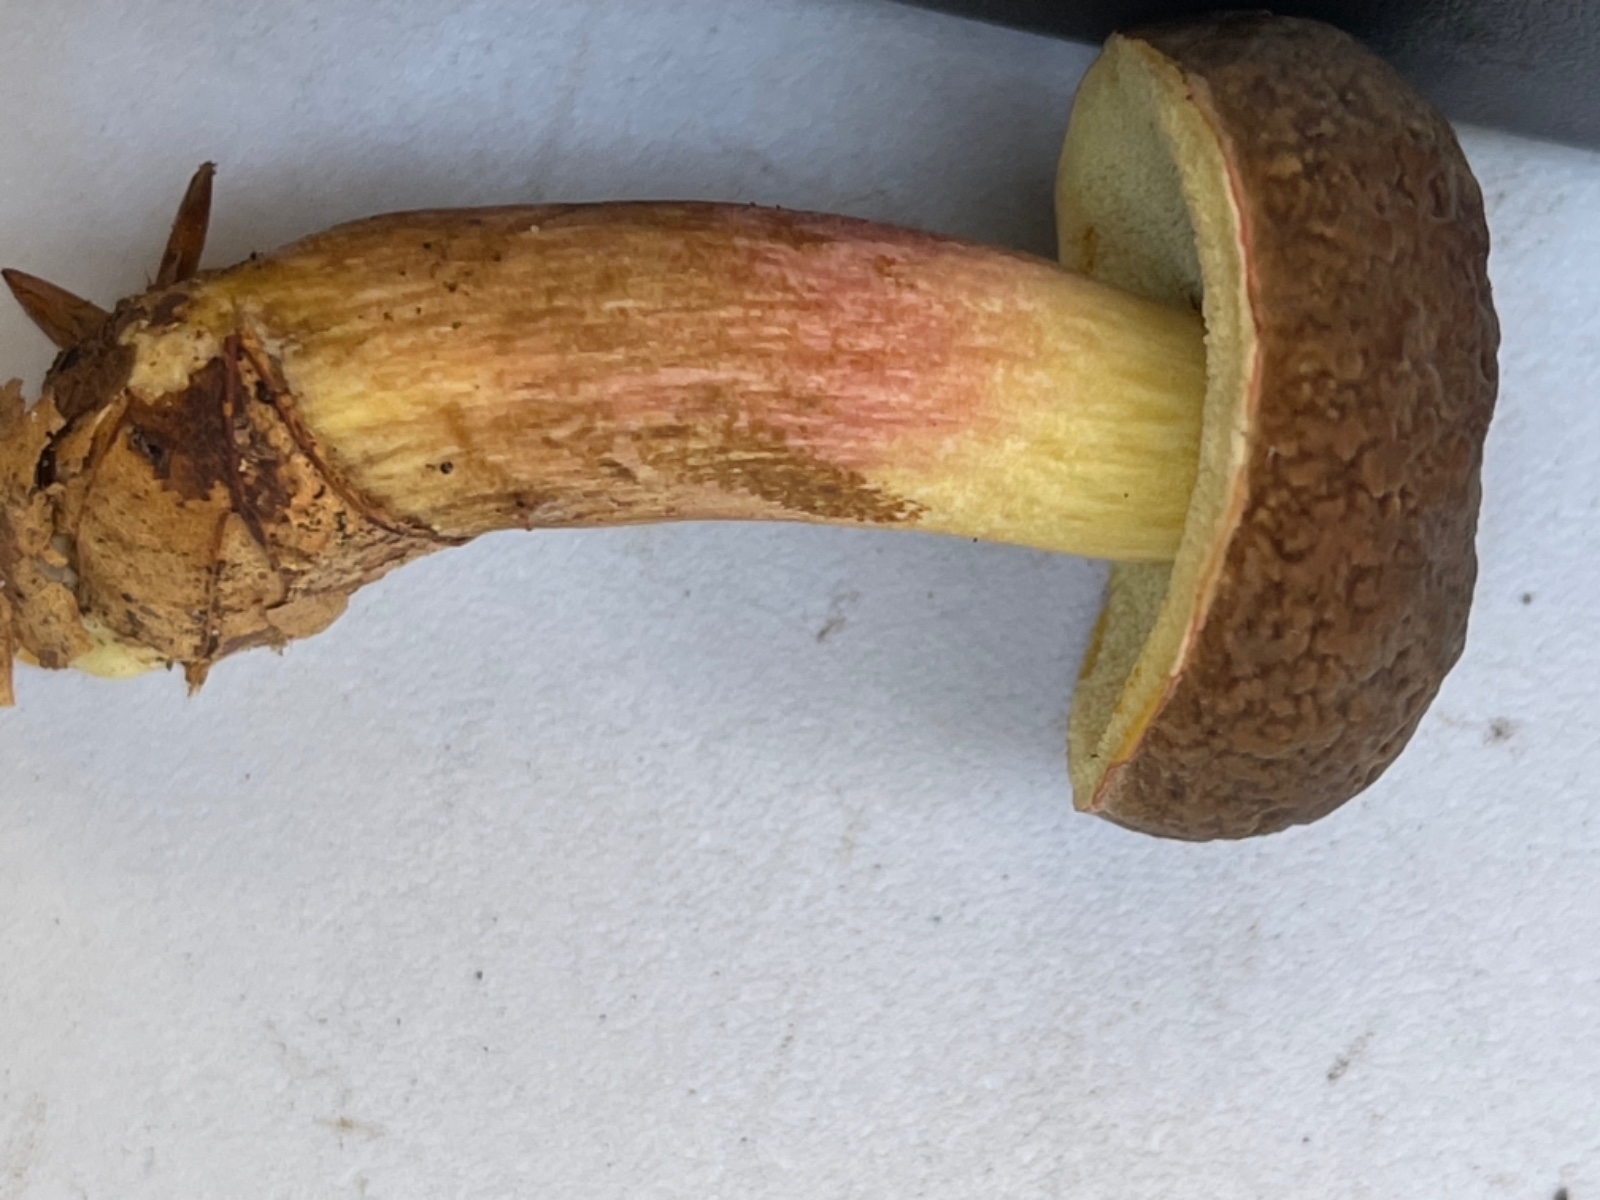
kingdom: Fungi
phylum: Basidiomycota
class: Agaricomycetes
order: Boletales
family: Boletaceae
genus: Xerocomellus
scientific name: Xerocomellus pruinatus
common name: dugget rørhat
